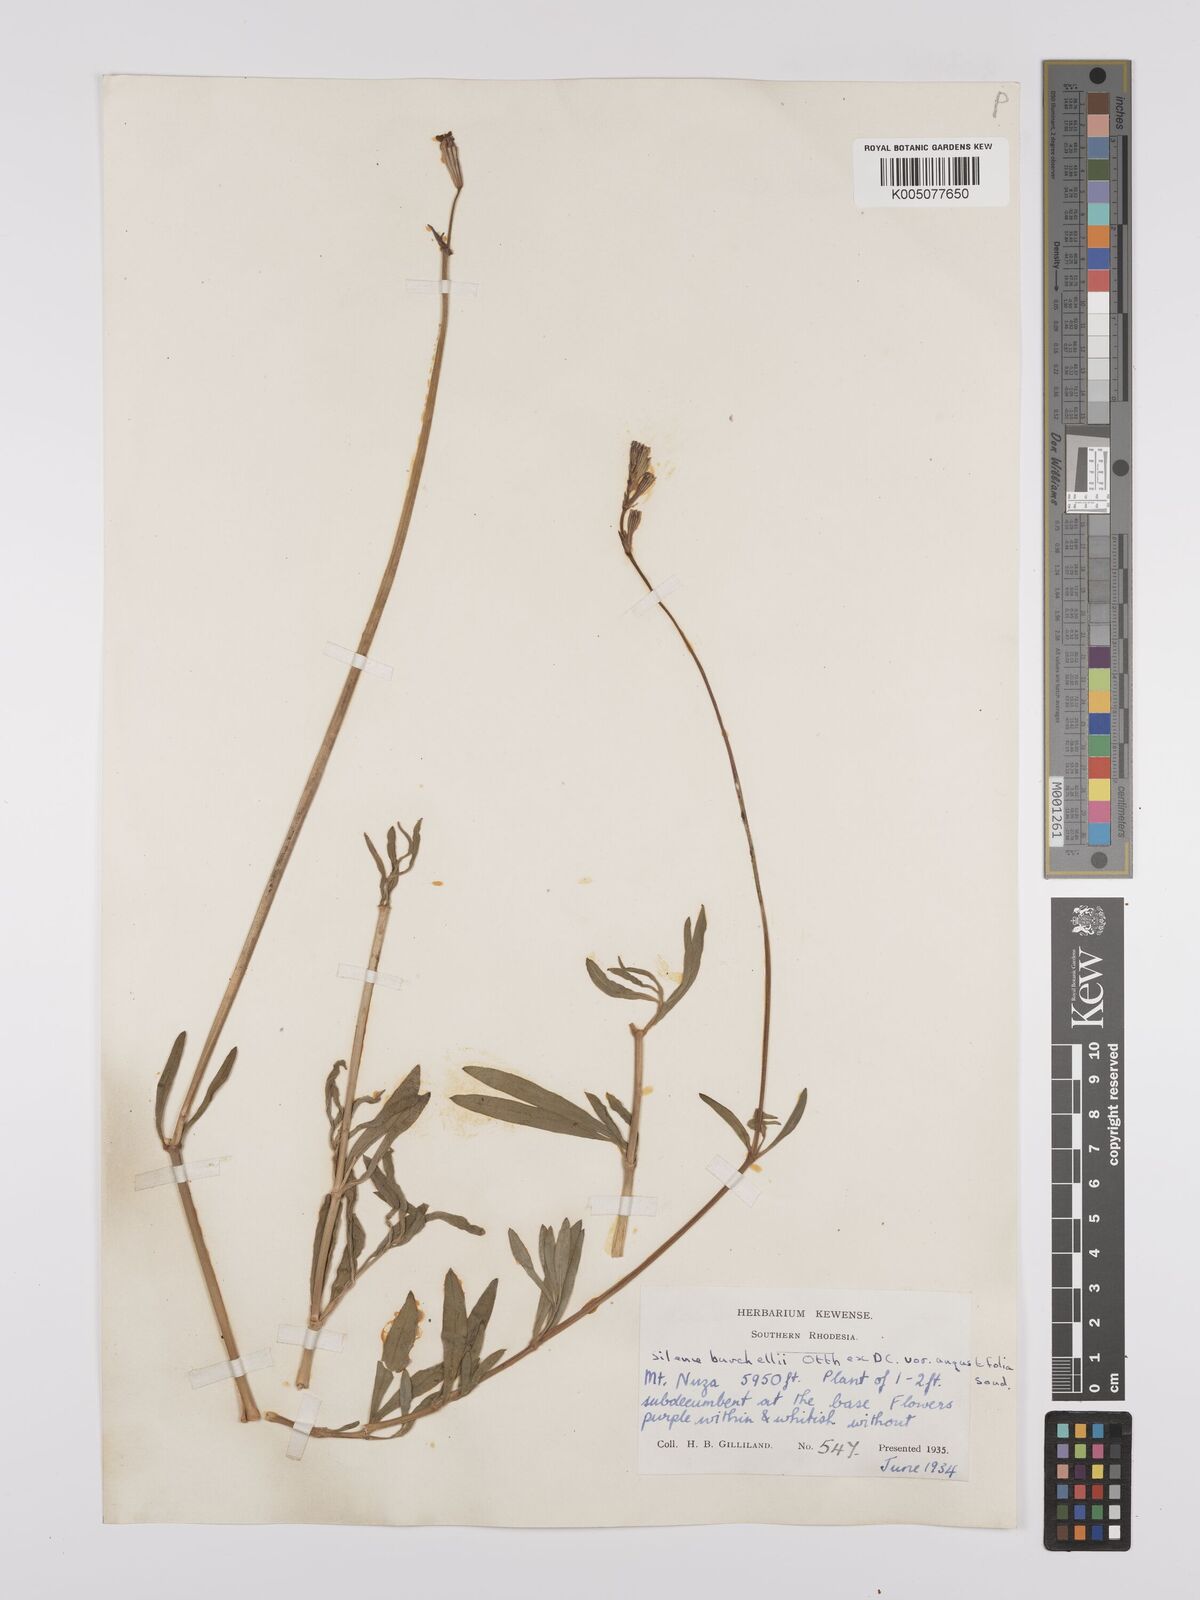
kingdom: Plantae
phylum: Tracheophyta
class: Magnoliopsida
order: Caryophyllales
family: Caryophyllaceae
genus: Silene
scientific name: Silene burchellii
